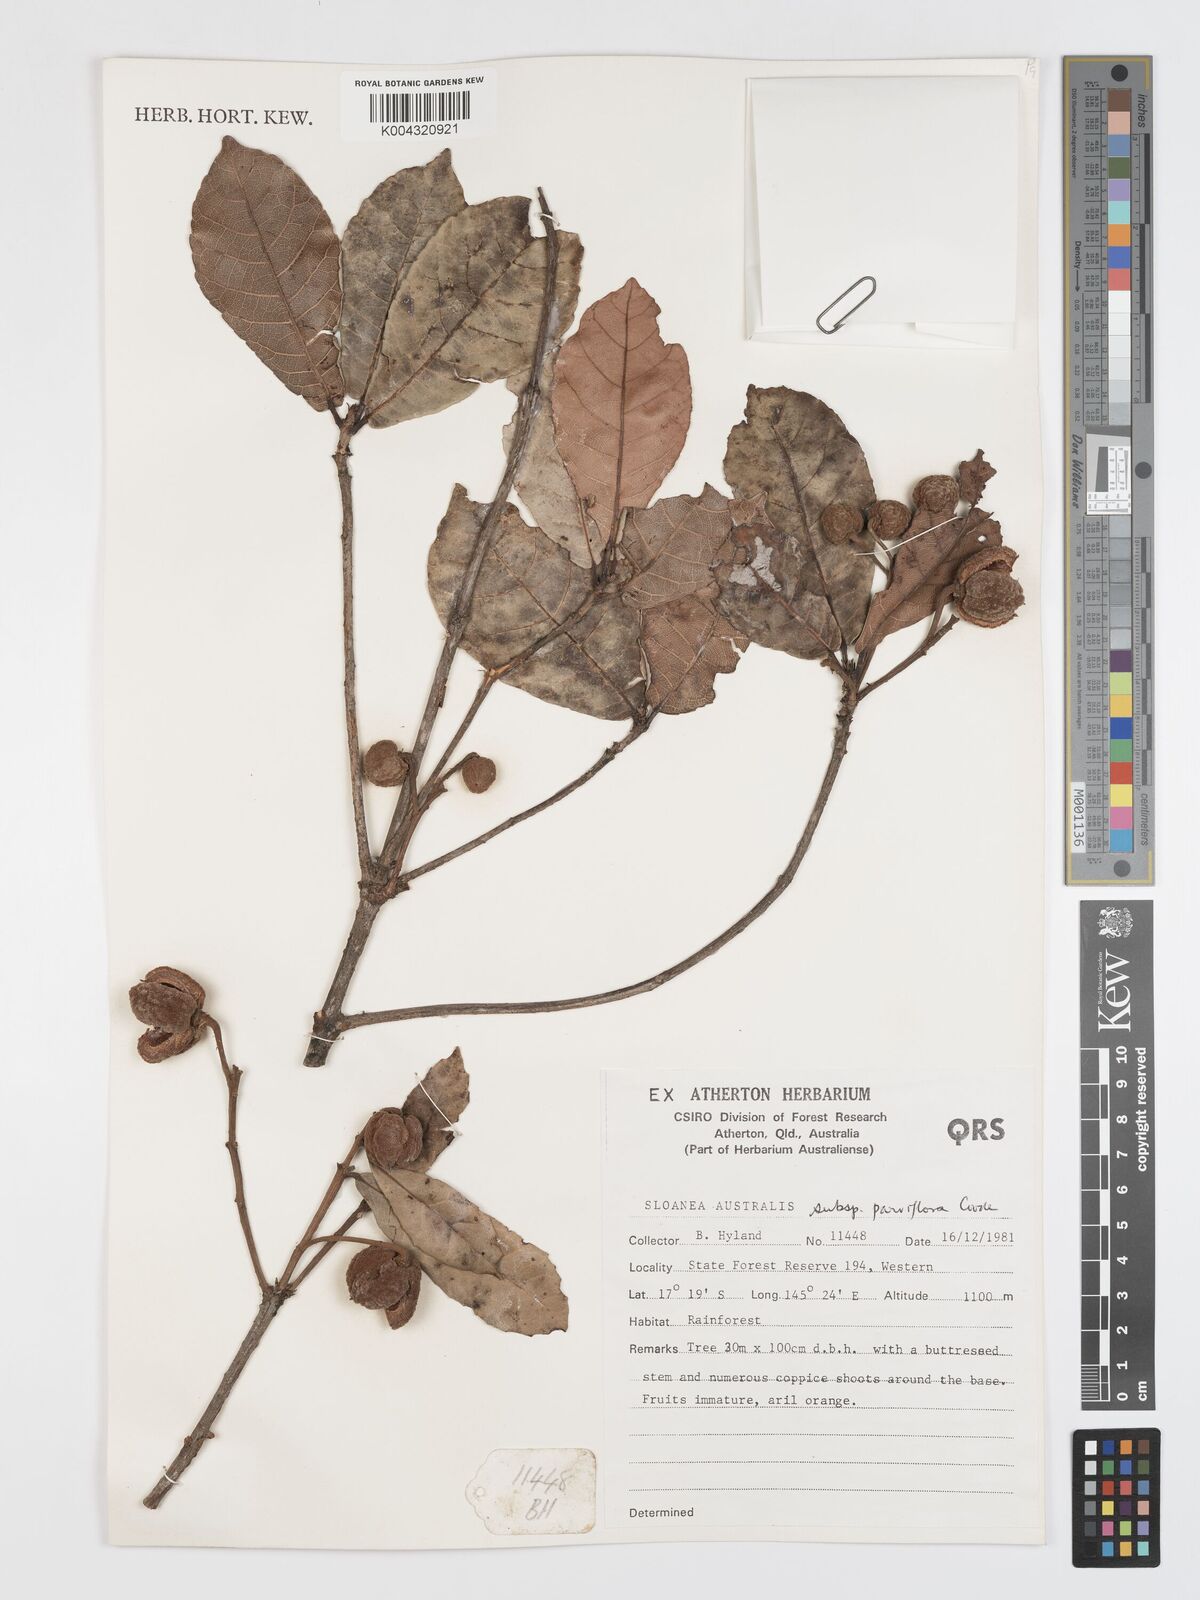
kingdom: Plantae
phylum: Tracheophyta
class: Magnoliopsida
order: Oxalidales
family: Elaeocarpaceae
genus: Sloanea
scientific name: Sloanea australis
